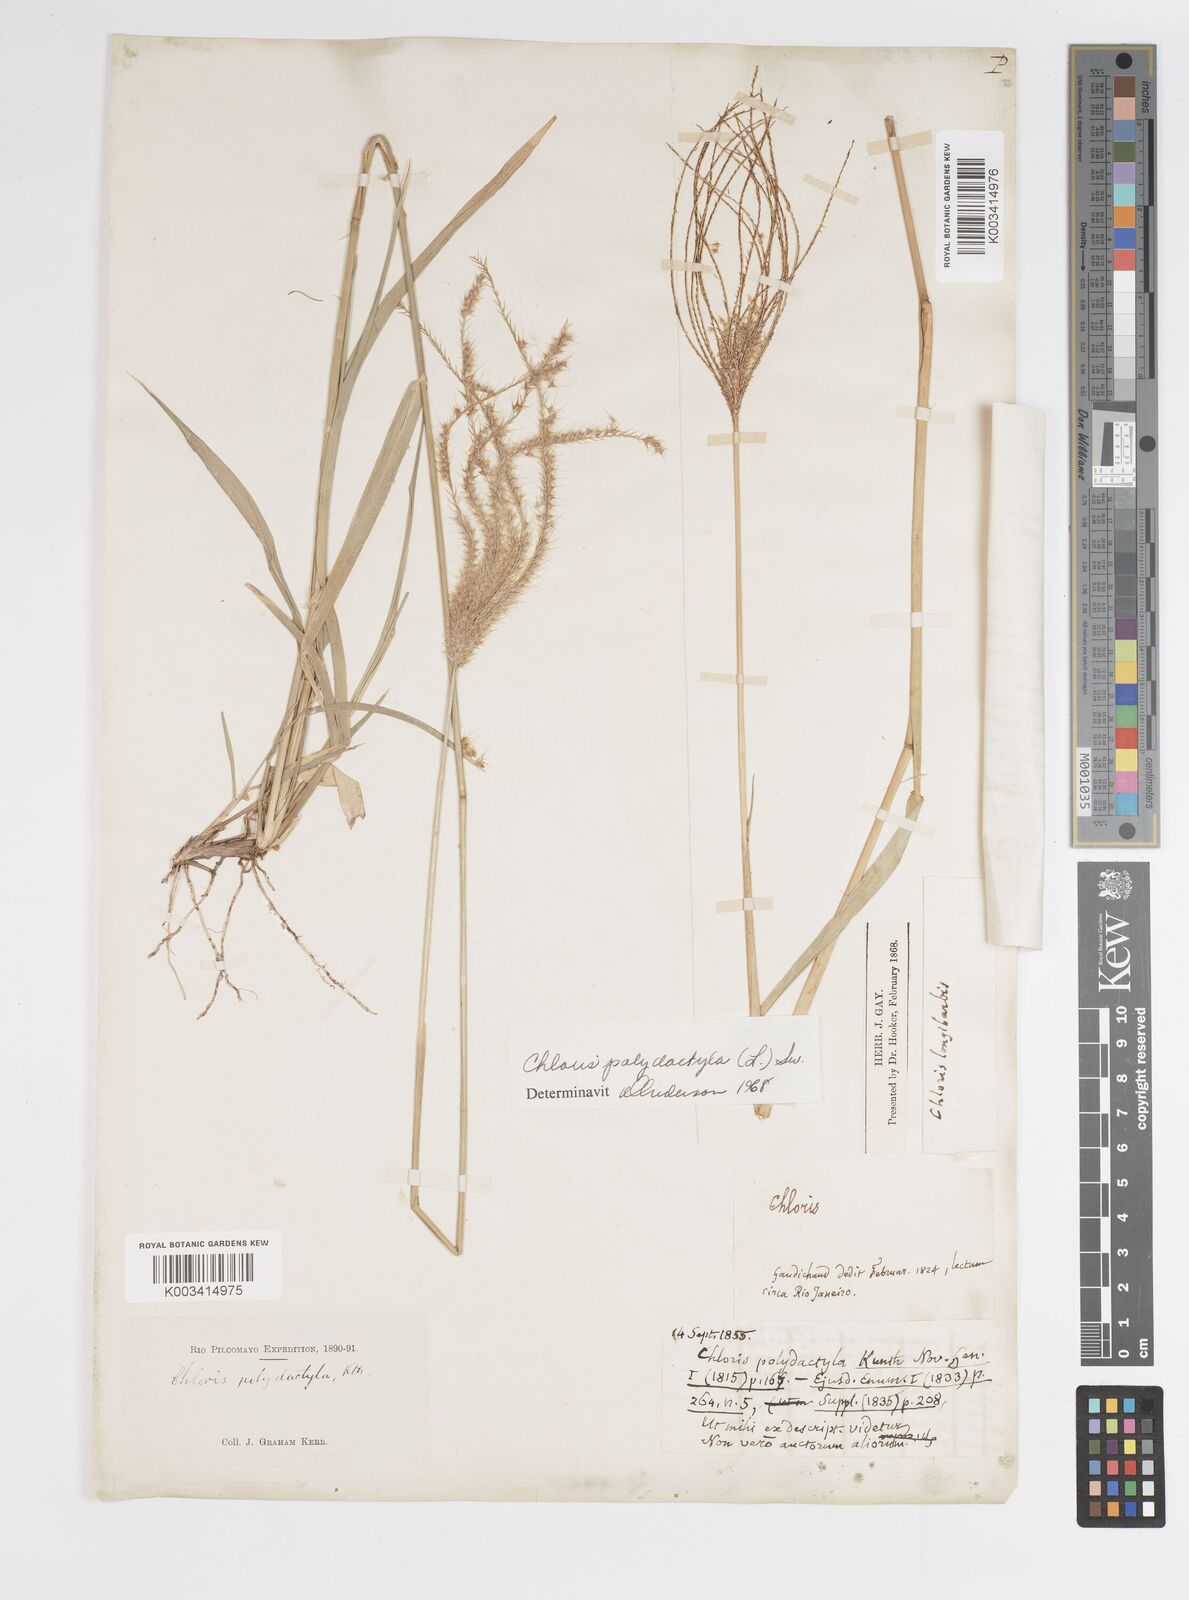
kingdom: Plantae
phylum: Tracheophyta
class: Liliopsida
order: Poales
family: Poaceae
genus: Stapfochloa
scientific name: Stapfochloa elata
